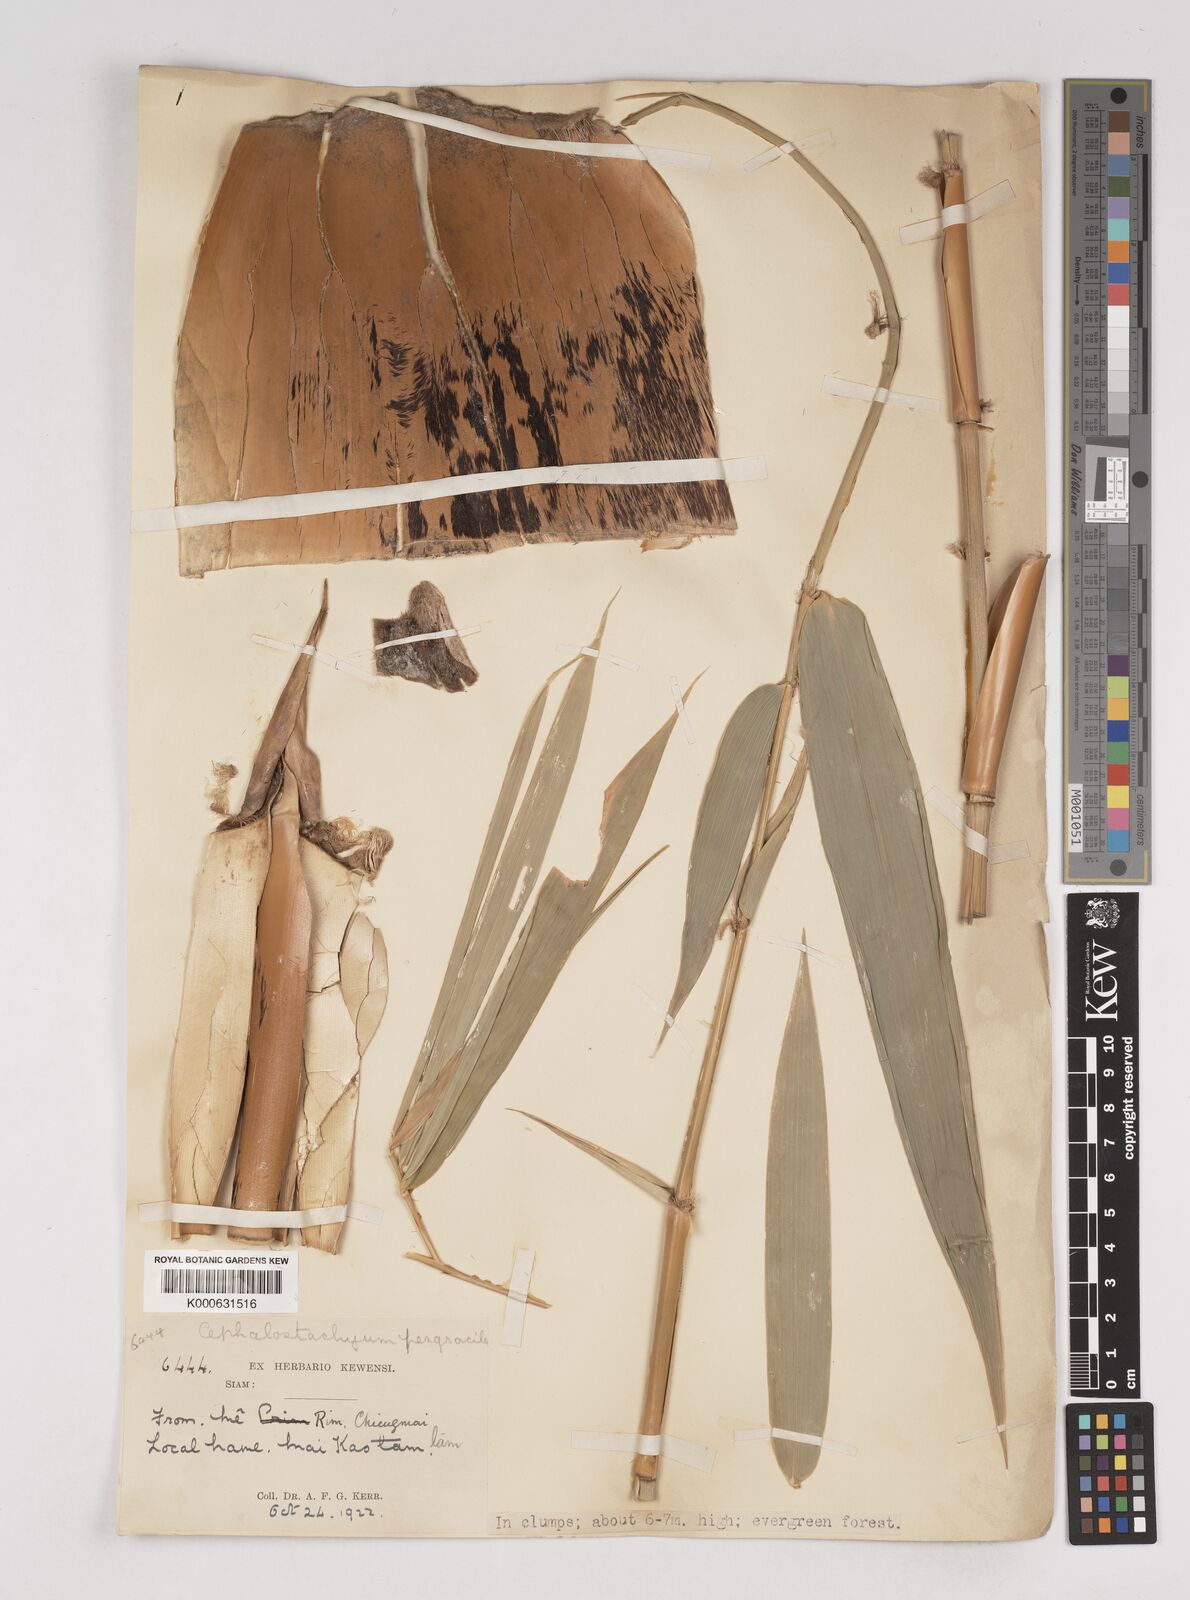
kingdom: Plantae
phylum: Tracheophyta
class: Liliopsida
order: Poales
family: Poaceae
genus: Schizostachyum
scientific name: Schizostachyum pergracile
